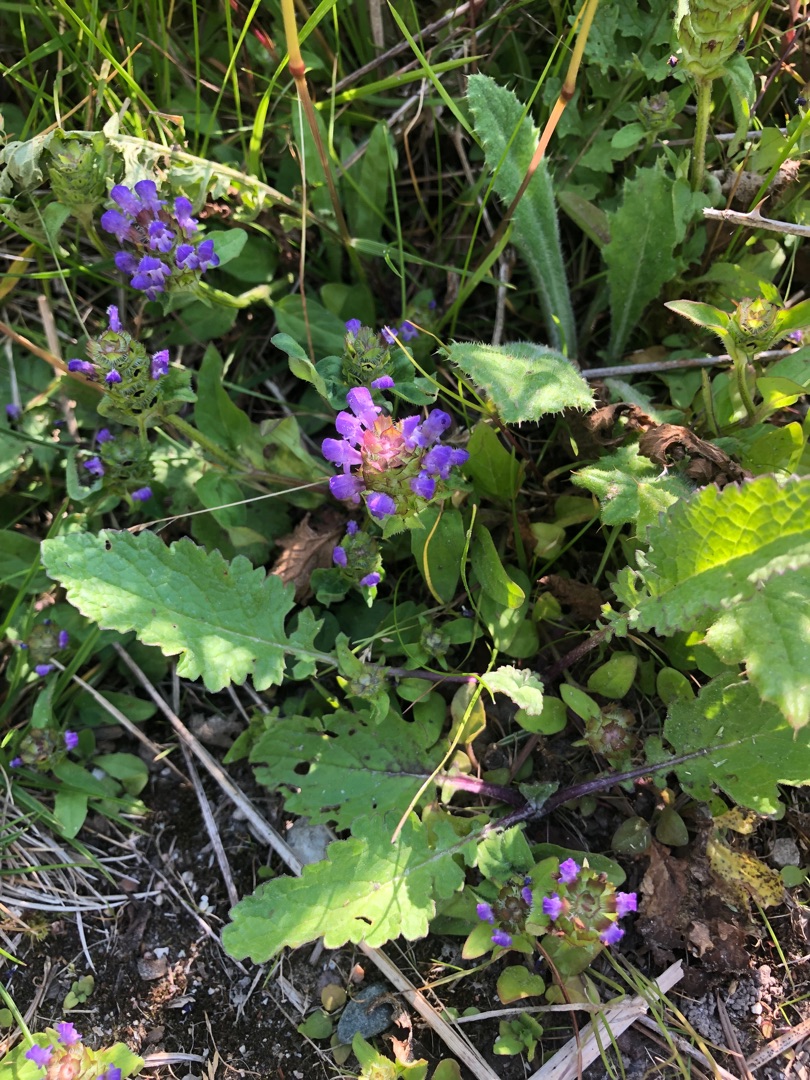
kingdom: Plantae
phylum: Tracheophyta
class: Magnoliopsida
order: Lamiales
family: Lamiaceae
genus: Prunella
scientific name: Prunella vulgaris
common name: Almindelig brunelle
